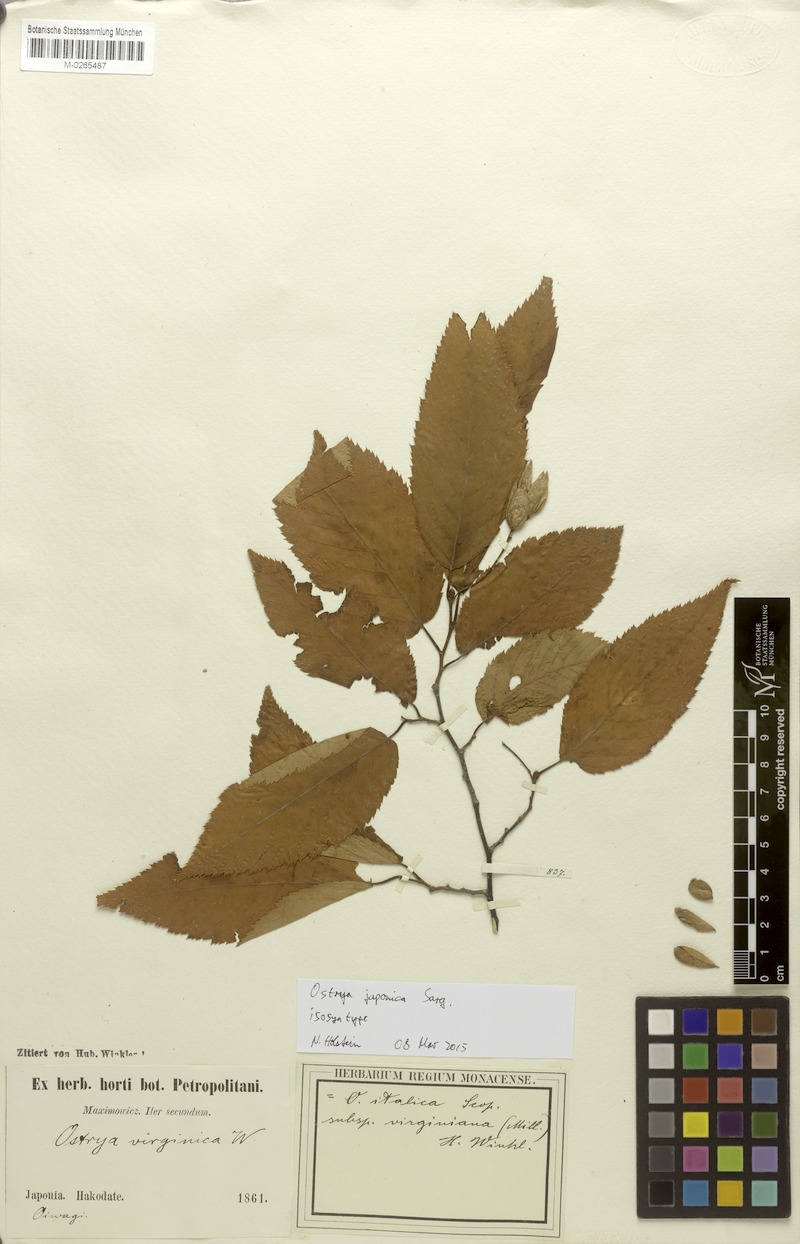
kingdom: Plantae
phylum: Tracheophyta
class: Magnoliopsida
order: Fagales
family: Betulaceae
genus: Ostrya
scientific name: Ostrya japonica
